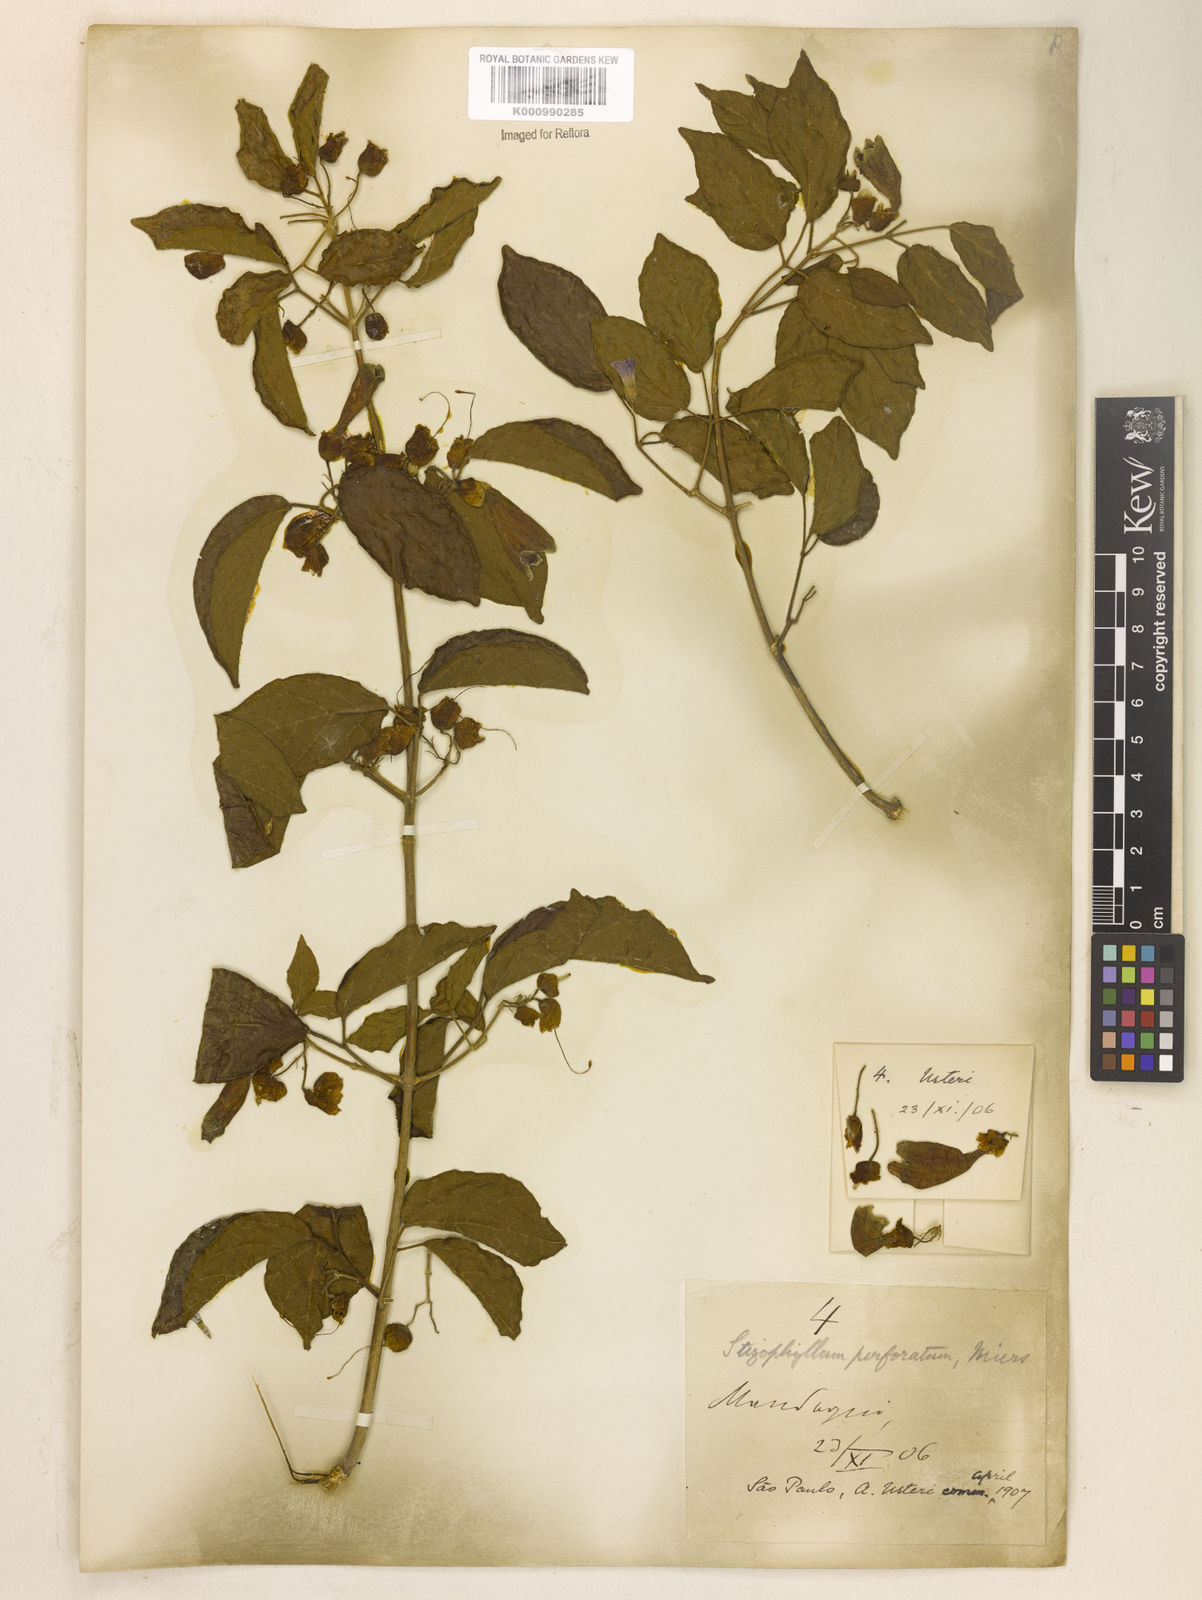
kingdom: Plantae
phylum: Tracheophyta
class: Magnoliopsida
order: Lamiales
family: Bignoniaceae
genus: Stizophyllum
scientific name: Stizophyllum perforatum
